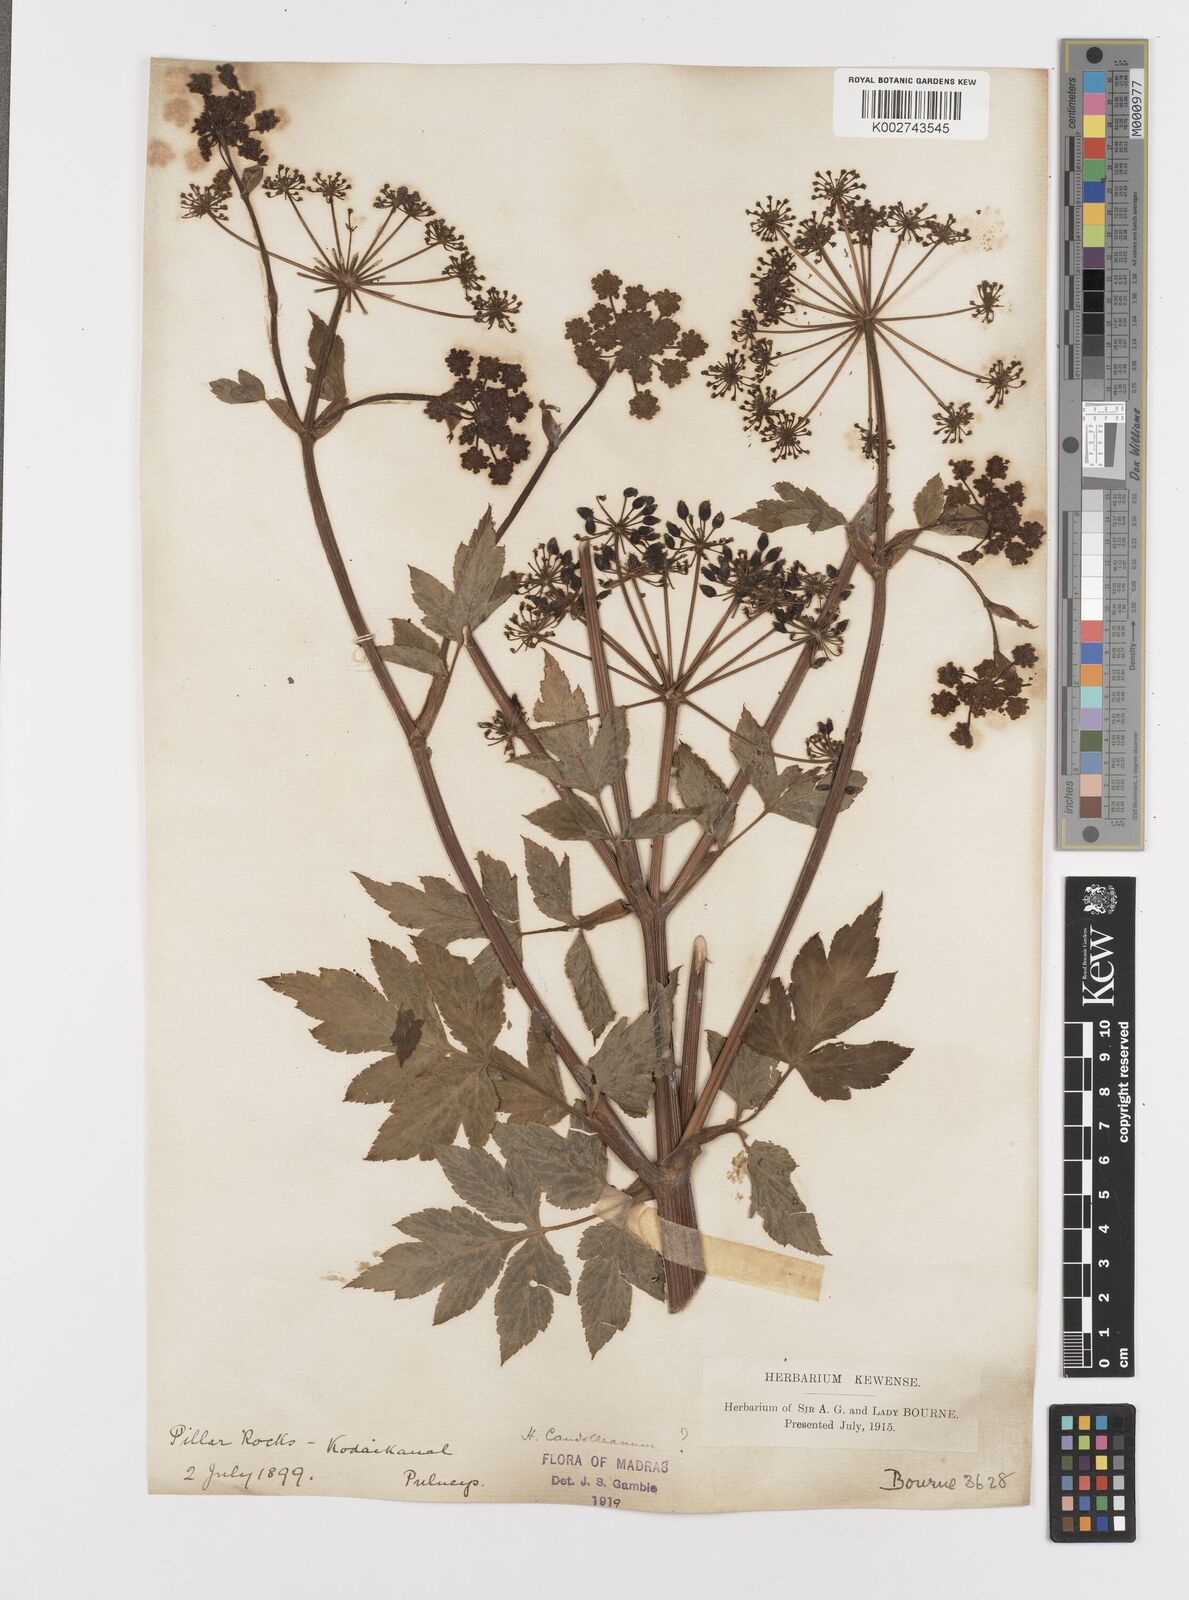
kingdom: Plantae
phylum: Tracheophyta
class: Magnoliopsida
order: Apiales
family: Apiaceae
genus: Tetrataenium
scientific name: Tetrataenium rigens
